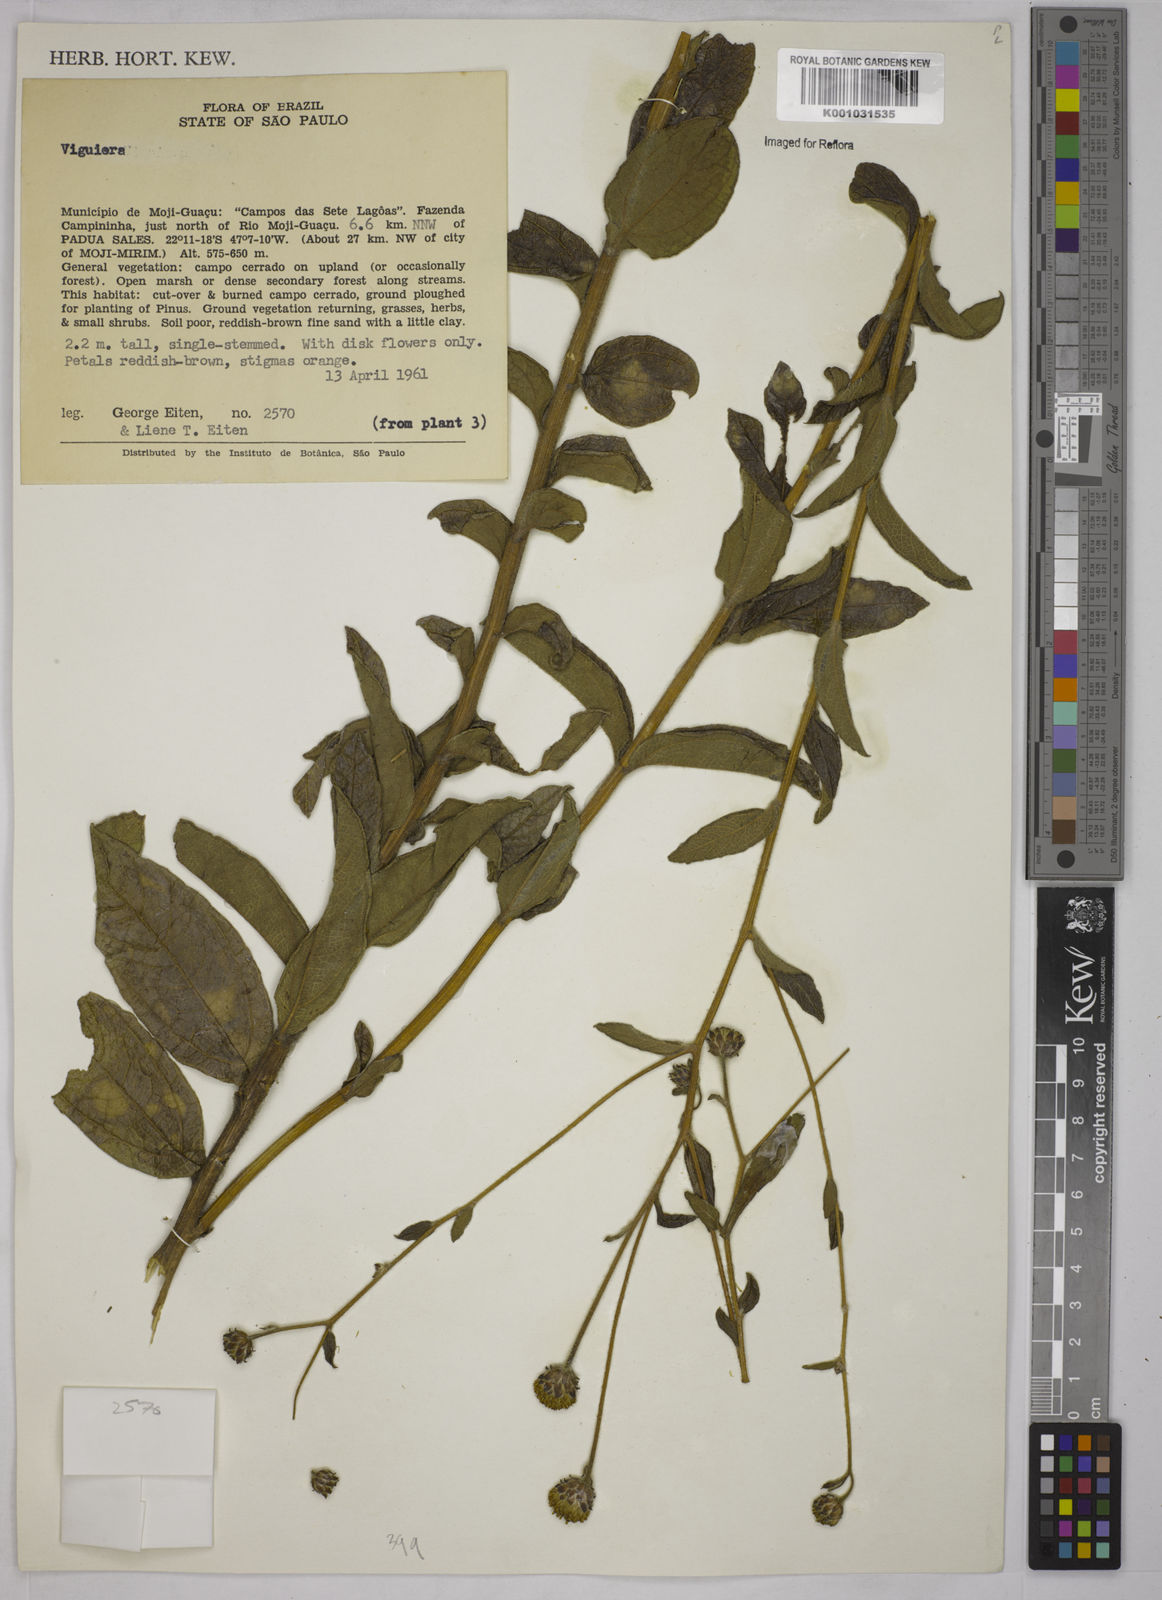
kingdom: Plantae
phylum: Tracheophyta
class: Magnoliopsida
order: Asterales
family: Asteraceae
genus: Viguiera
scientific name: Viguiera
